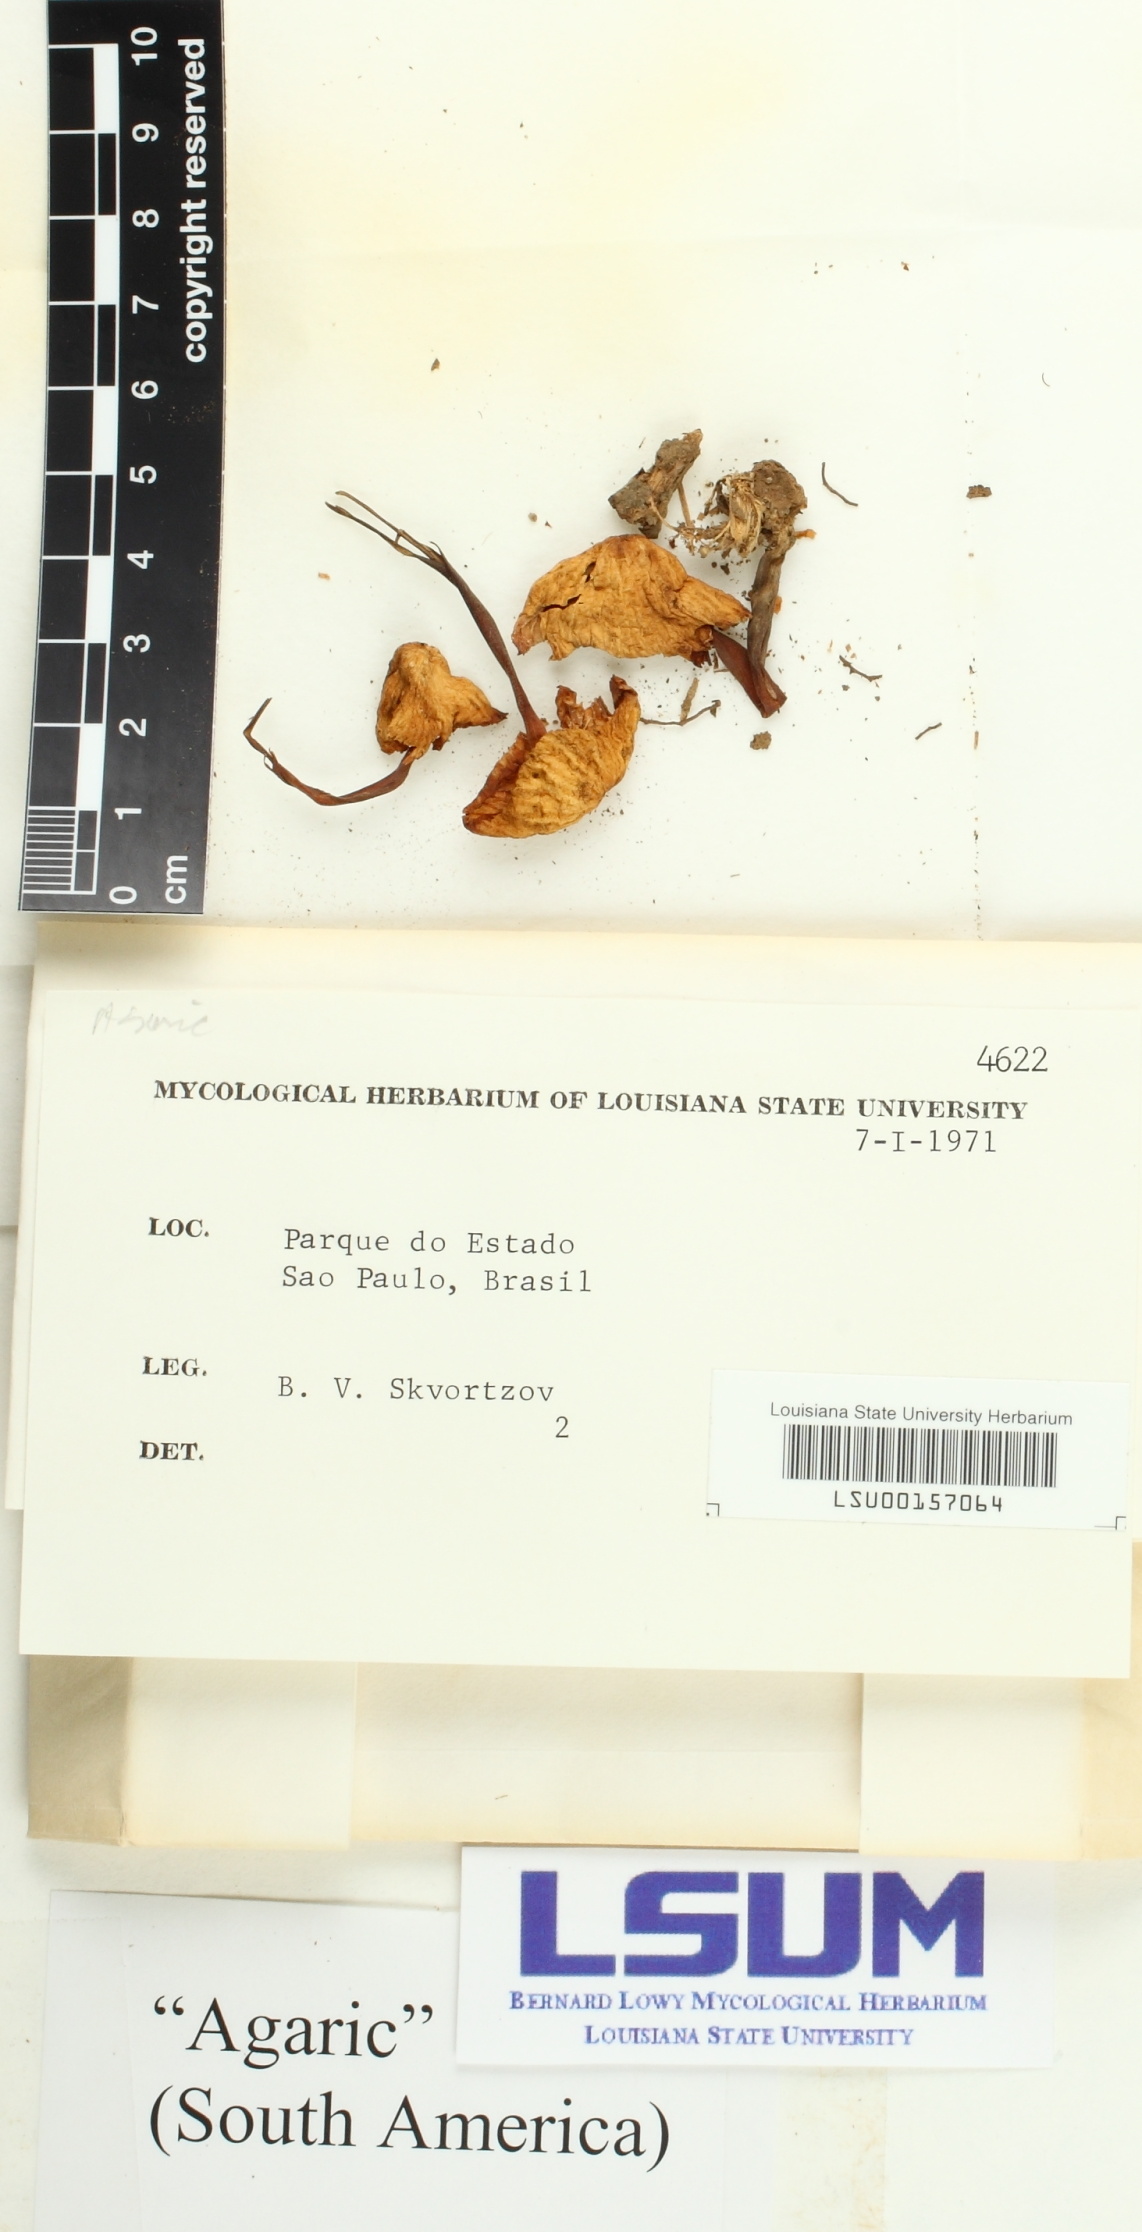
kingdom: Fungi
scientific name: Fungi
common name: Fungi
